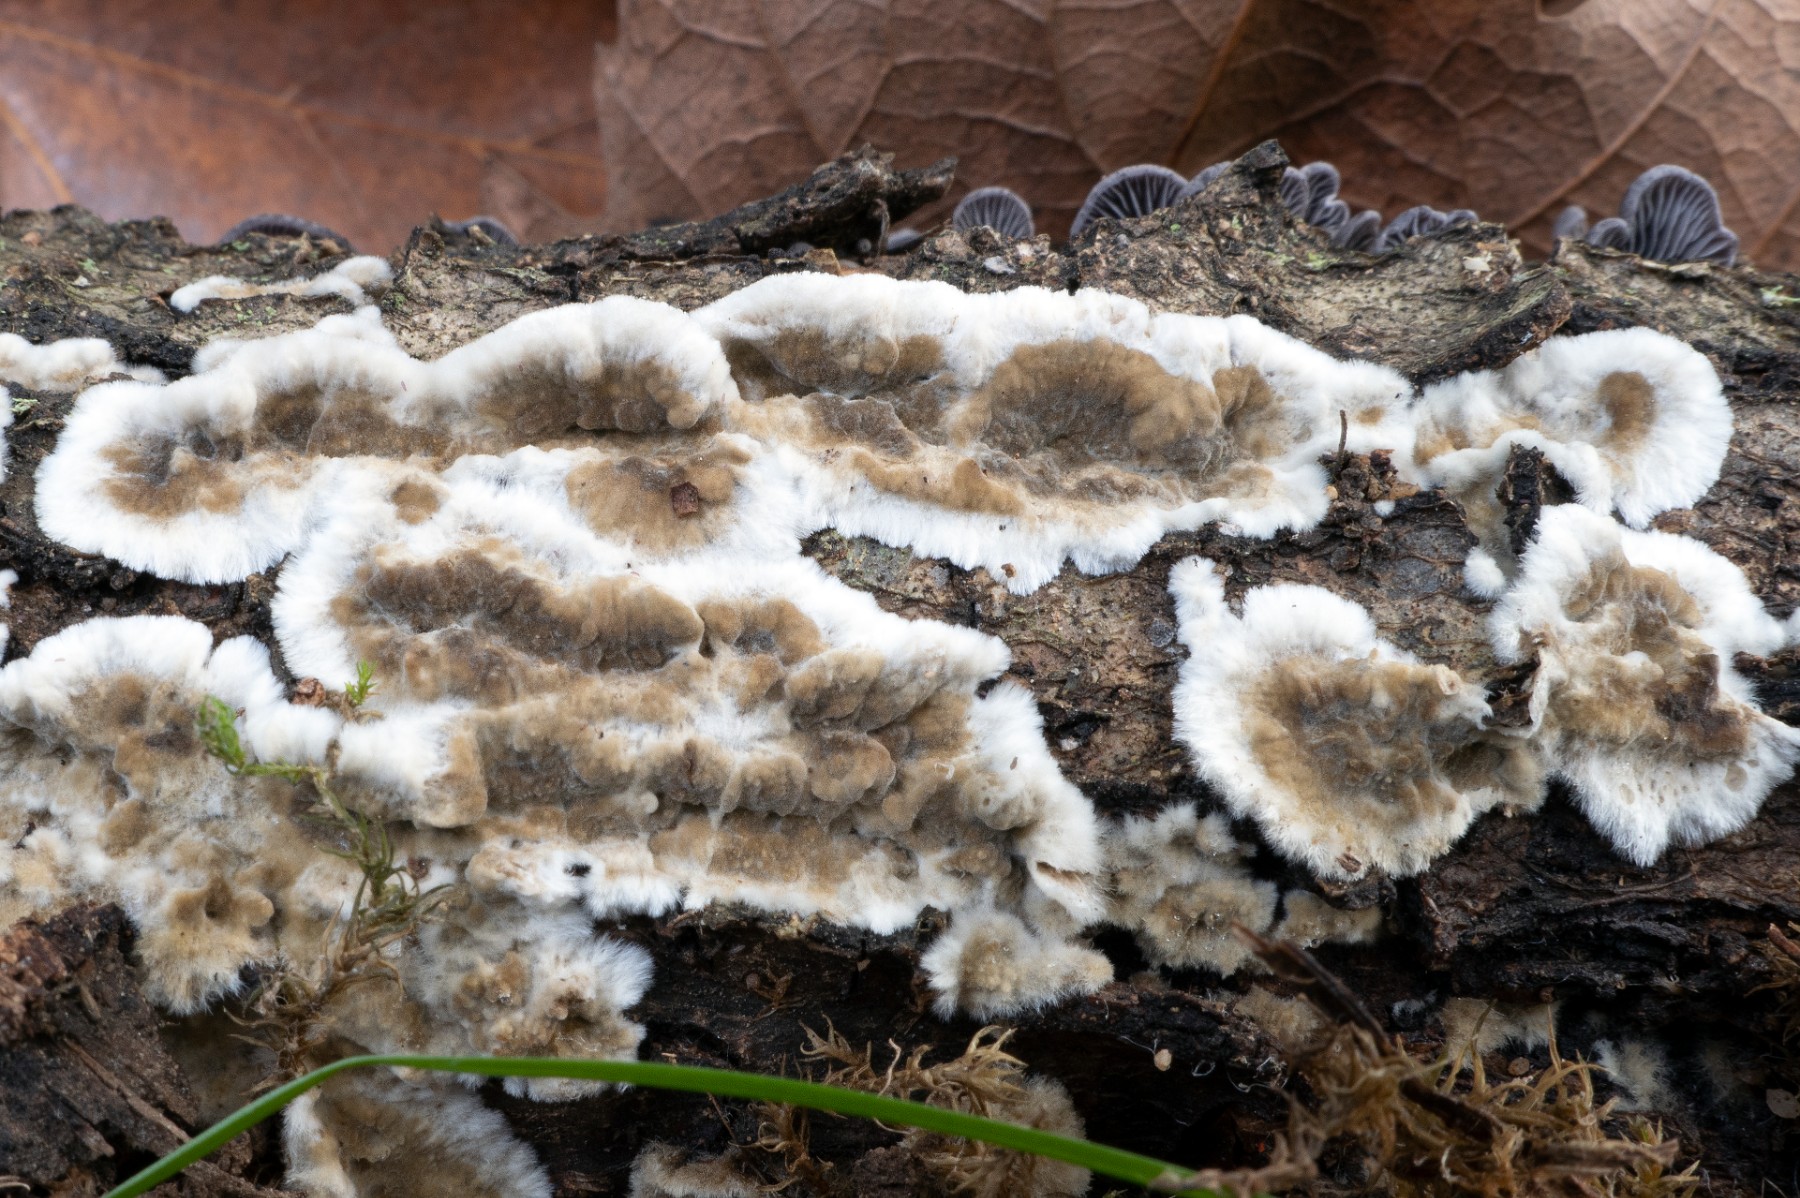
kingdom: Fungi
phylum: Basidiomycota
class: Agaricomycetes
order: Polyporales
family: Phanerochaetaceae
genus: Porostereum
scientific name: Porostereum spadiceum
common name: daddellædersvamp
